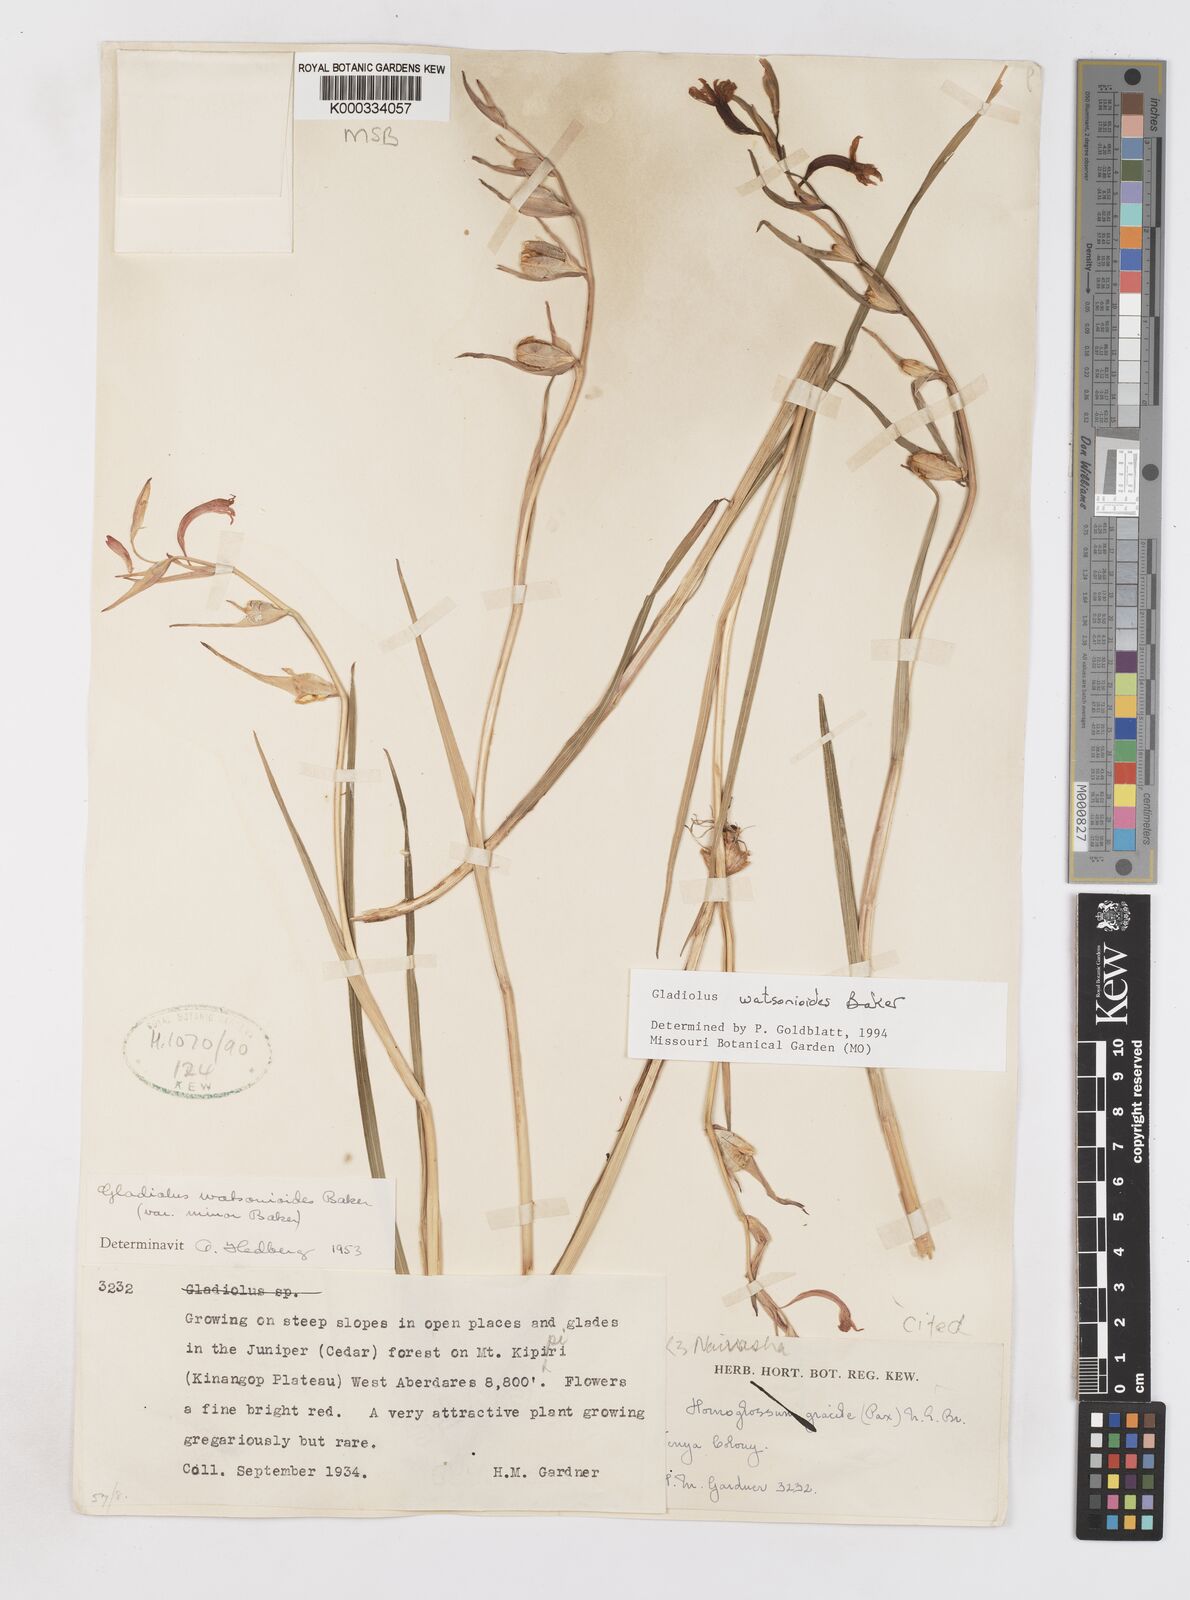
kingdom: Plantae
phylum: Tracheophyta
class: Liliopsida
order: Asparagales
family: Iridaceae
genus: Gladiolus
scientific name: Gladiolus watsonioides
